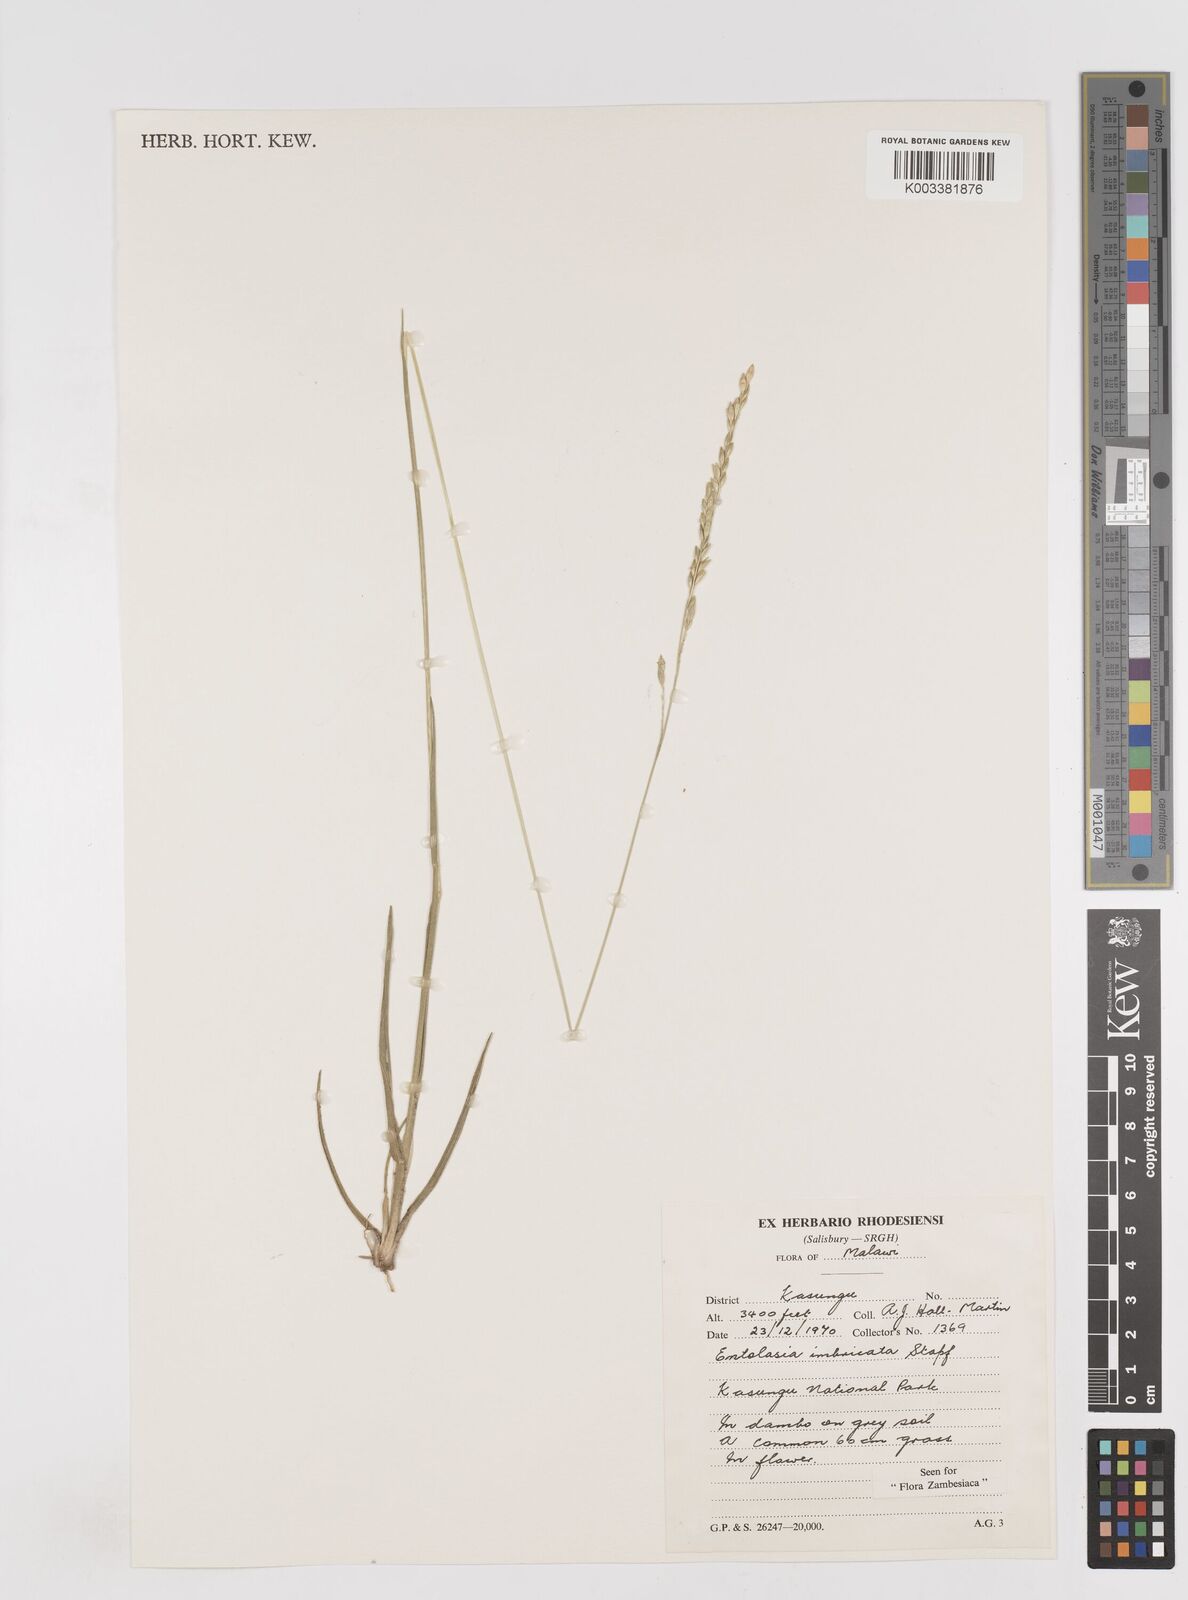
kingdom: Plantae
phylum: Tracheophyta
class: Liliopsida
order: Poales
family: Poaceae
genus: Entolasia
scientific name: Entolasia imbricata
